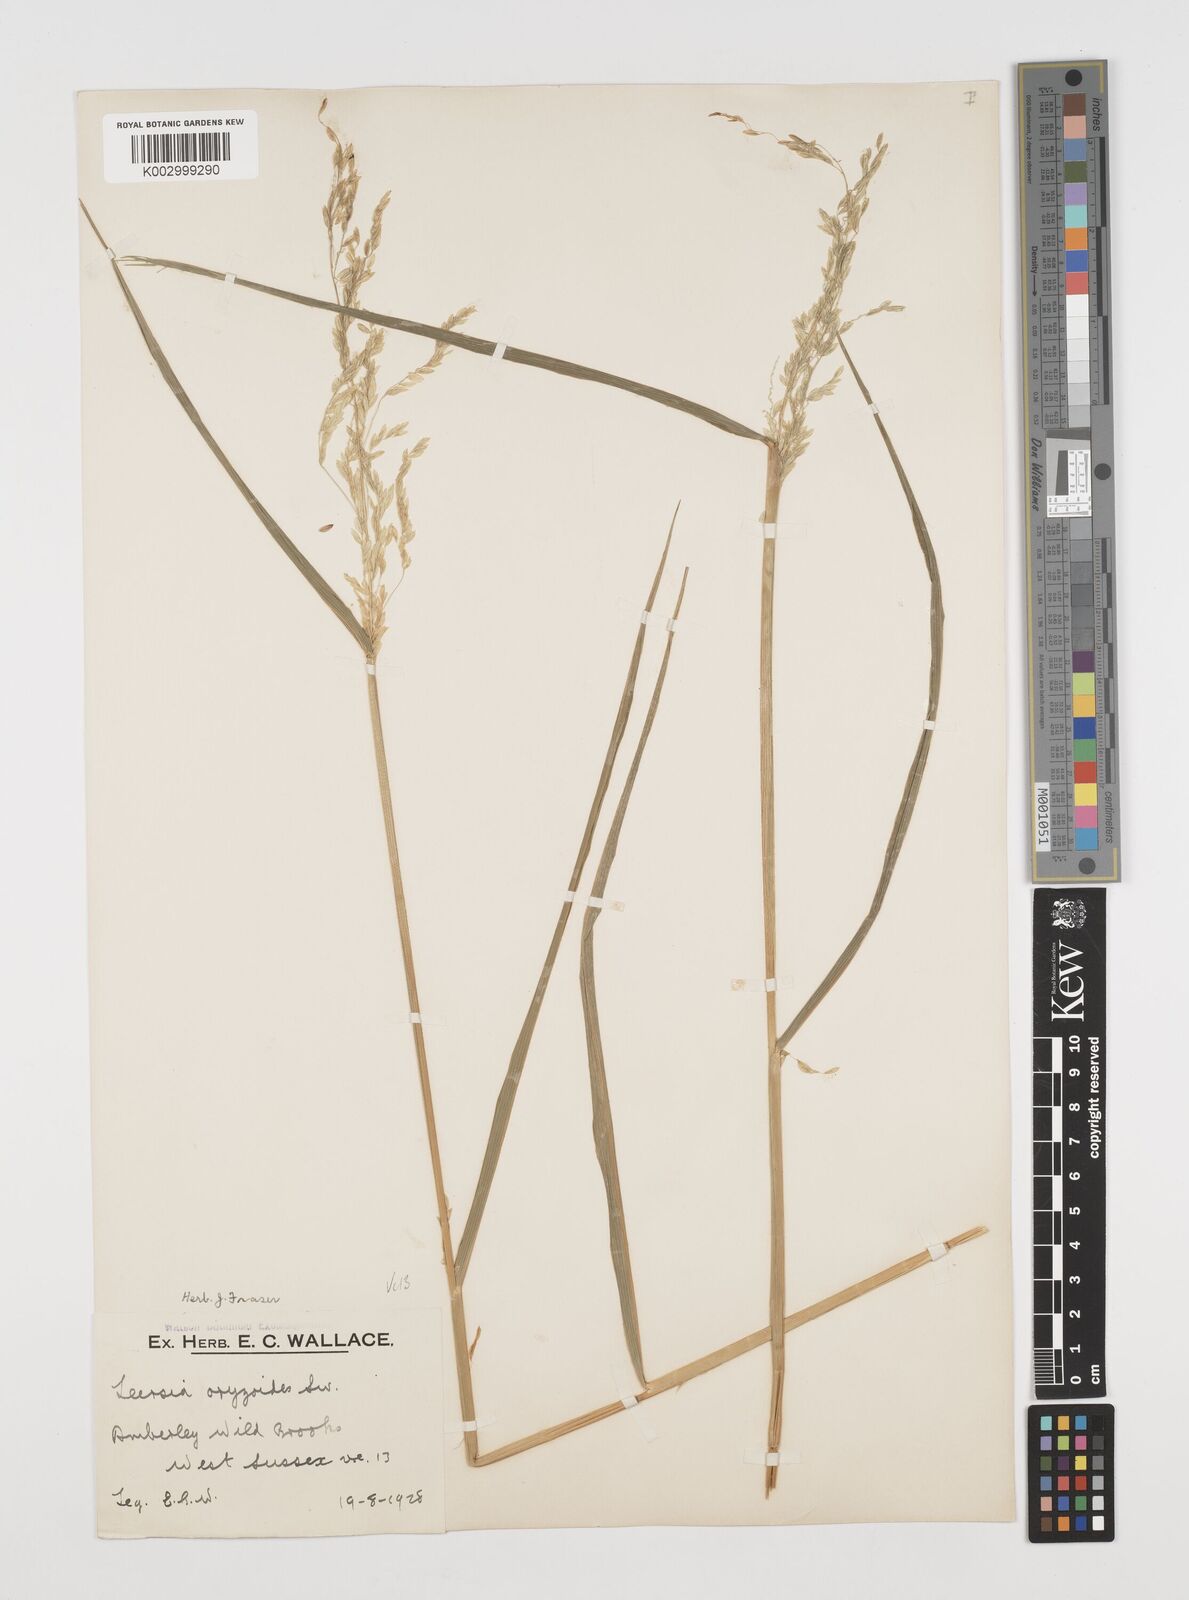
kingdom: Plantae
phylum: Tracheophyta
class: Liliopsida
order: Poales
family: Poaceae
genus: Leersia
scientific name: Leersia oryzoides
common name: Cut-grass
